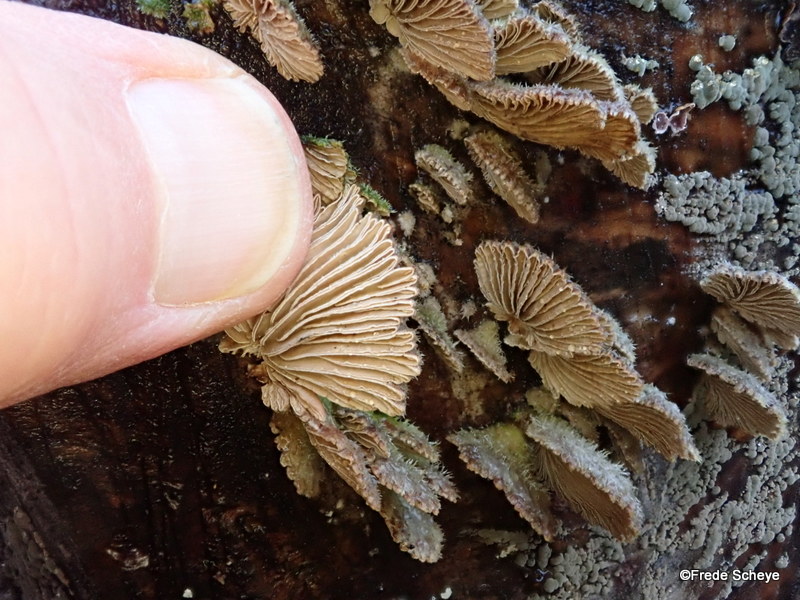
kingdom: Fungi
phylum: Basidiomycota
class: Agaricomycetes
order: Agaricales
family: Schizophyllaceae
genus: Schizophyllum
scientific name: Schizophyllum commune
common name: kløvblad
